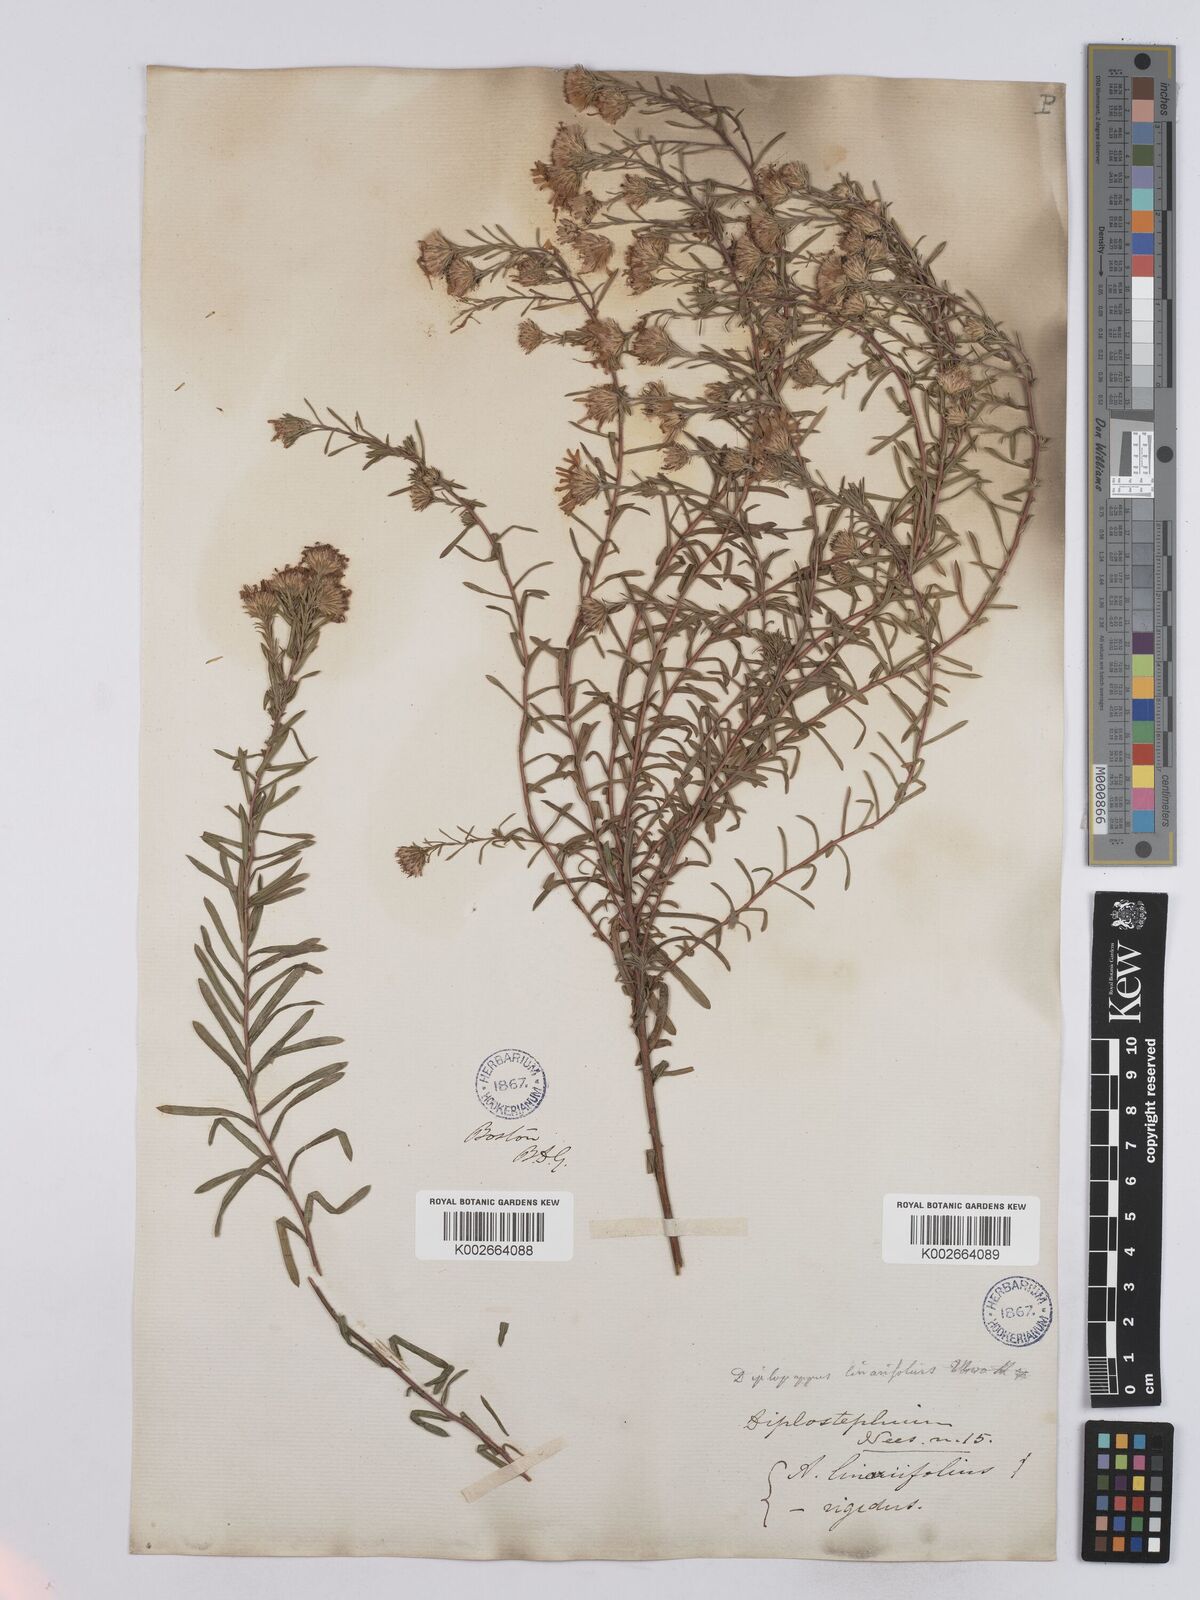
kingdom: Plantae
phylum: Tracheophyta
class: Magnoliopsida
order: Asterales
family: Asteraceae
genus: Ionactis
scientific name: Ionactis linariifolia
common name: Flax-leaf aster
